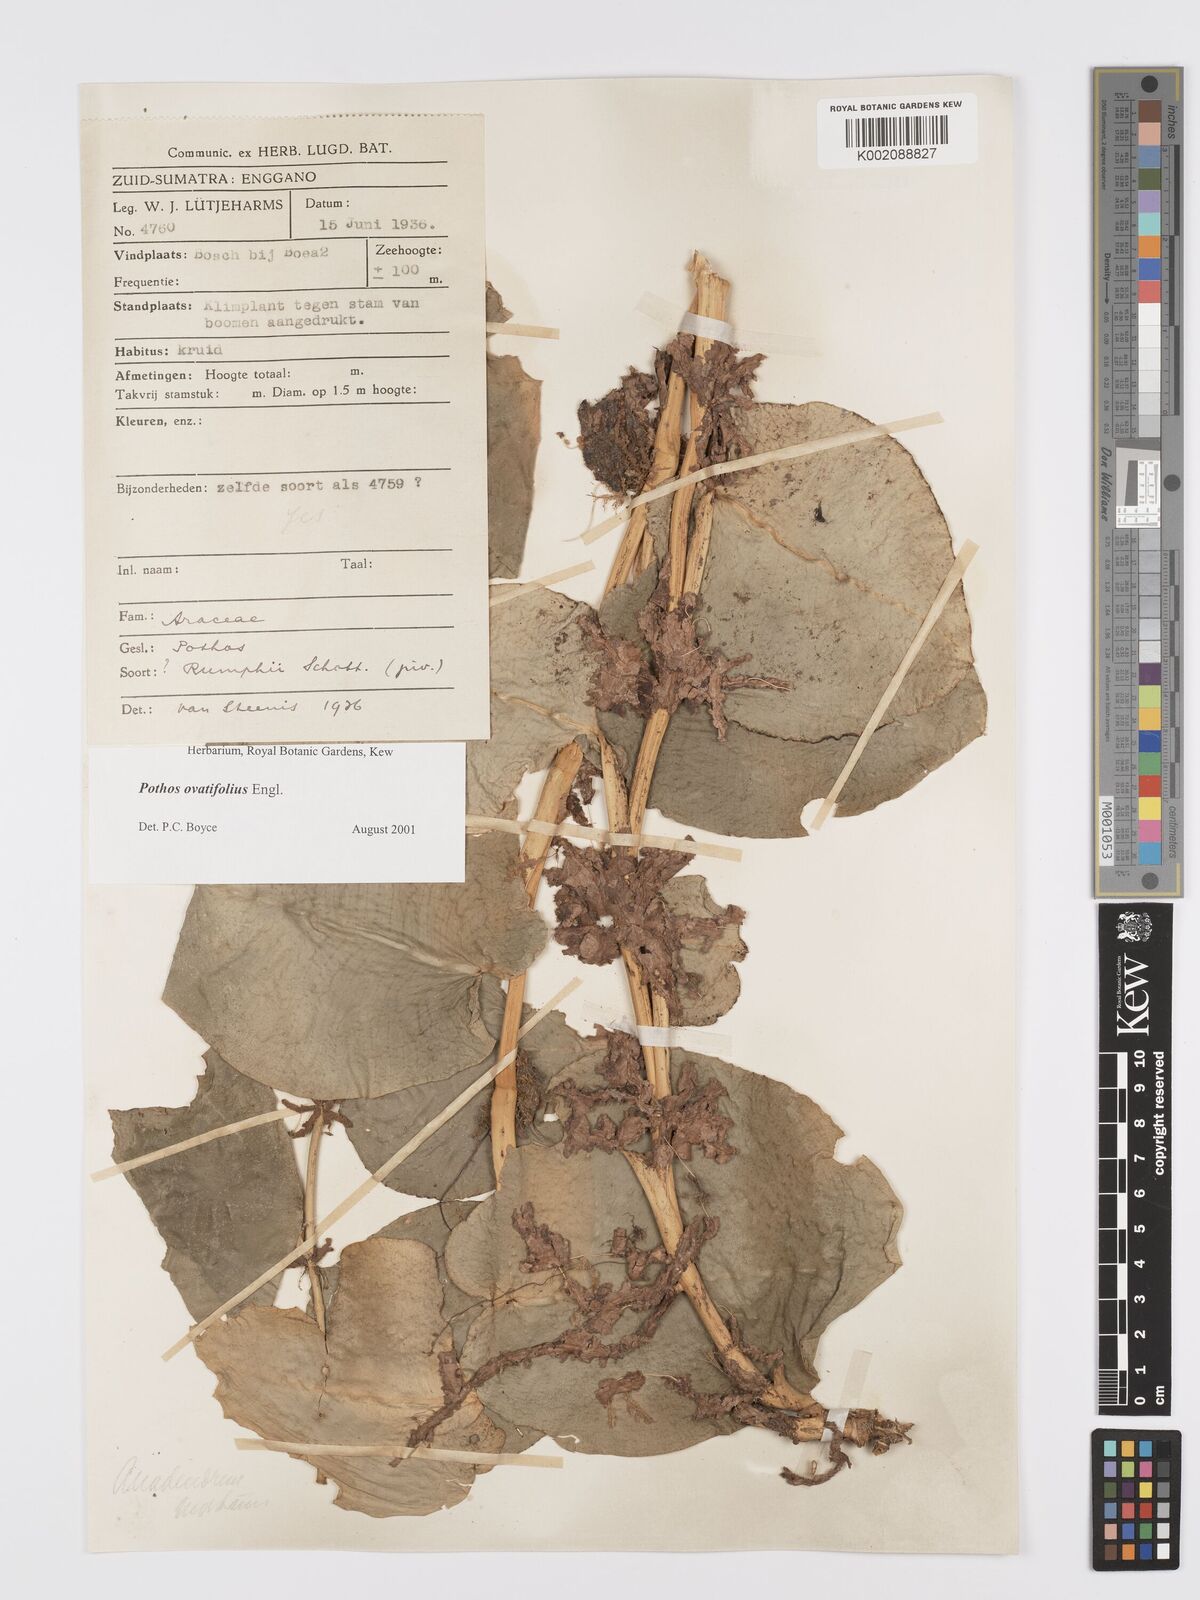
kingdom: Plantae
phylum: Tracheophyta
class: Liliopsida
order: Alismatales
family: Araceae
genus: Pothos
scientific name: Pothos ovatifolius
